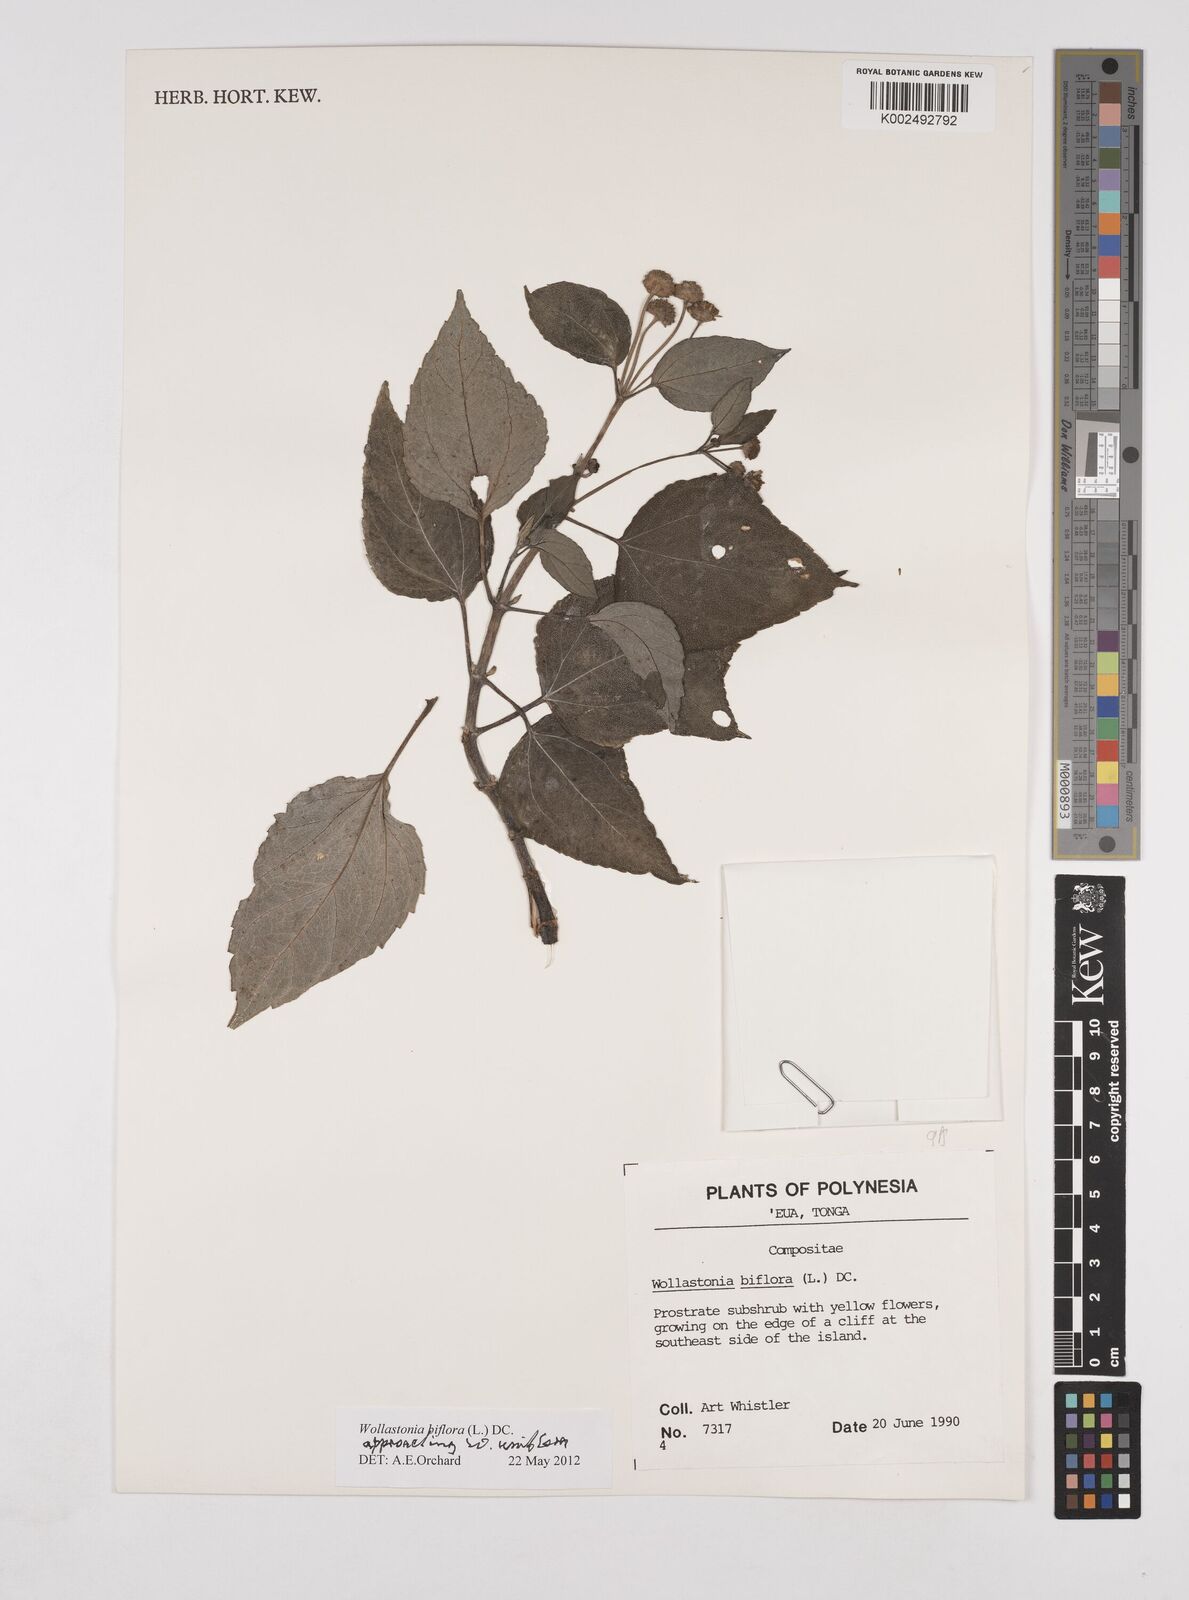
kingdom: Plantae
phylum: Tracheophyta
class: Magnoliopsida
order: Asterales
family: Asteraceae
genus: Wollastonia
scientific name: Wollastonia biflora
